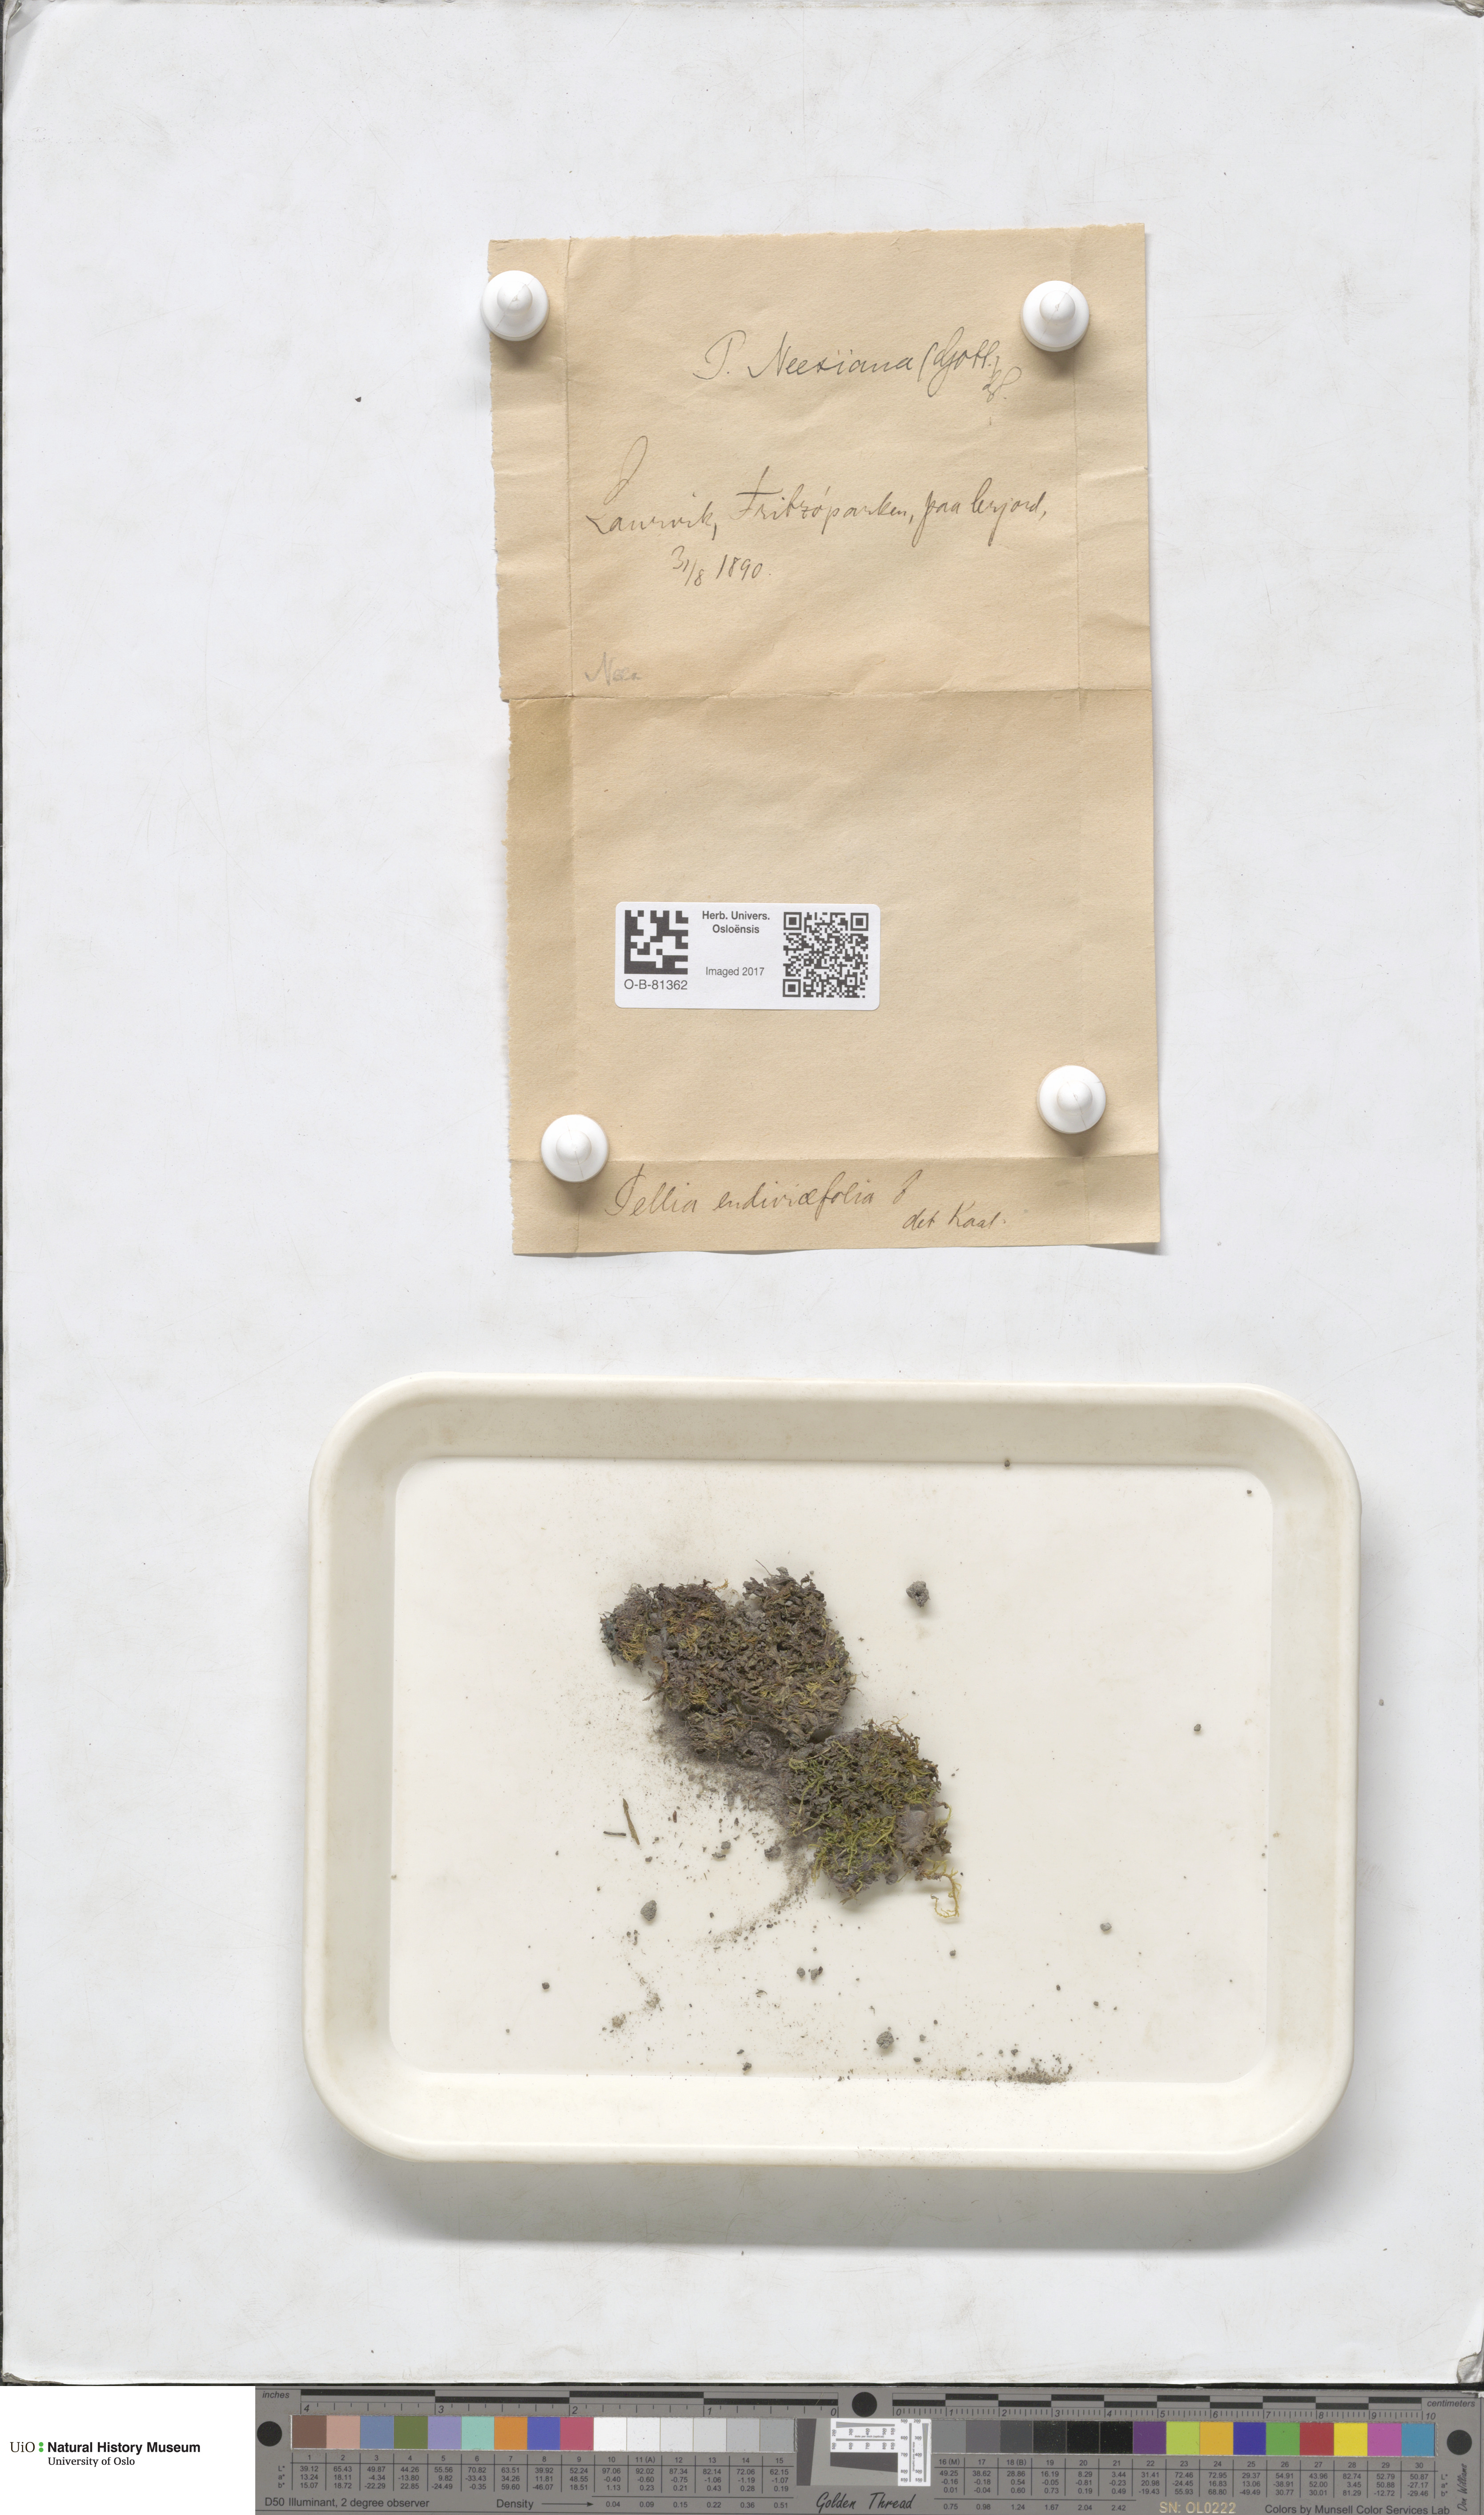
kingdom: Plantae
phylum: Marchantiophyta
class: Jungermanniopsida
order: Pelliales
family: Pelliaceae
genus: Pellia
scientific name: Pellia neesiana
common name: Nees  pellia
